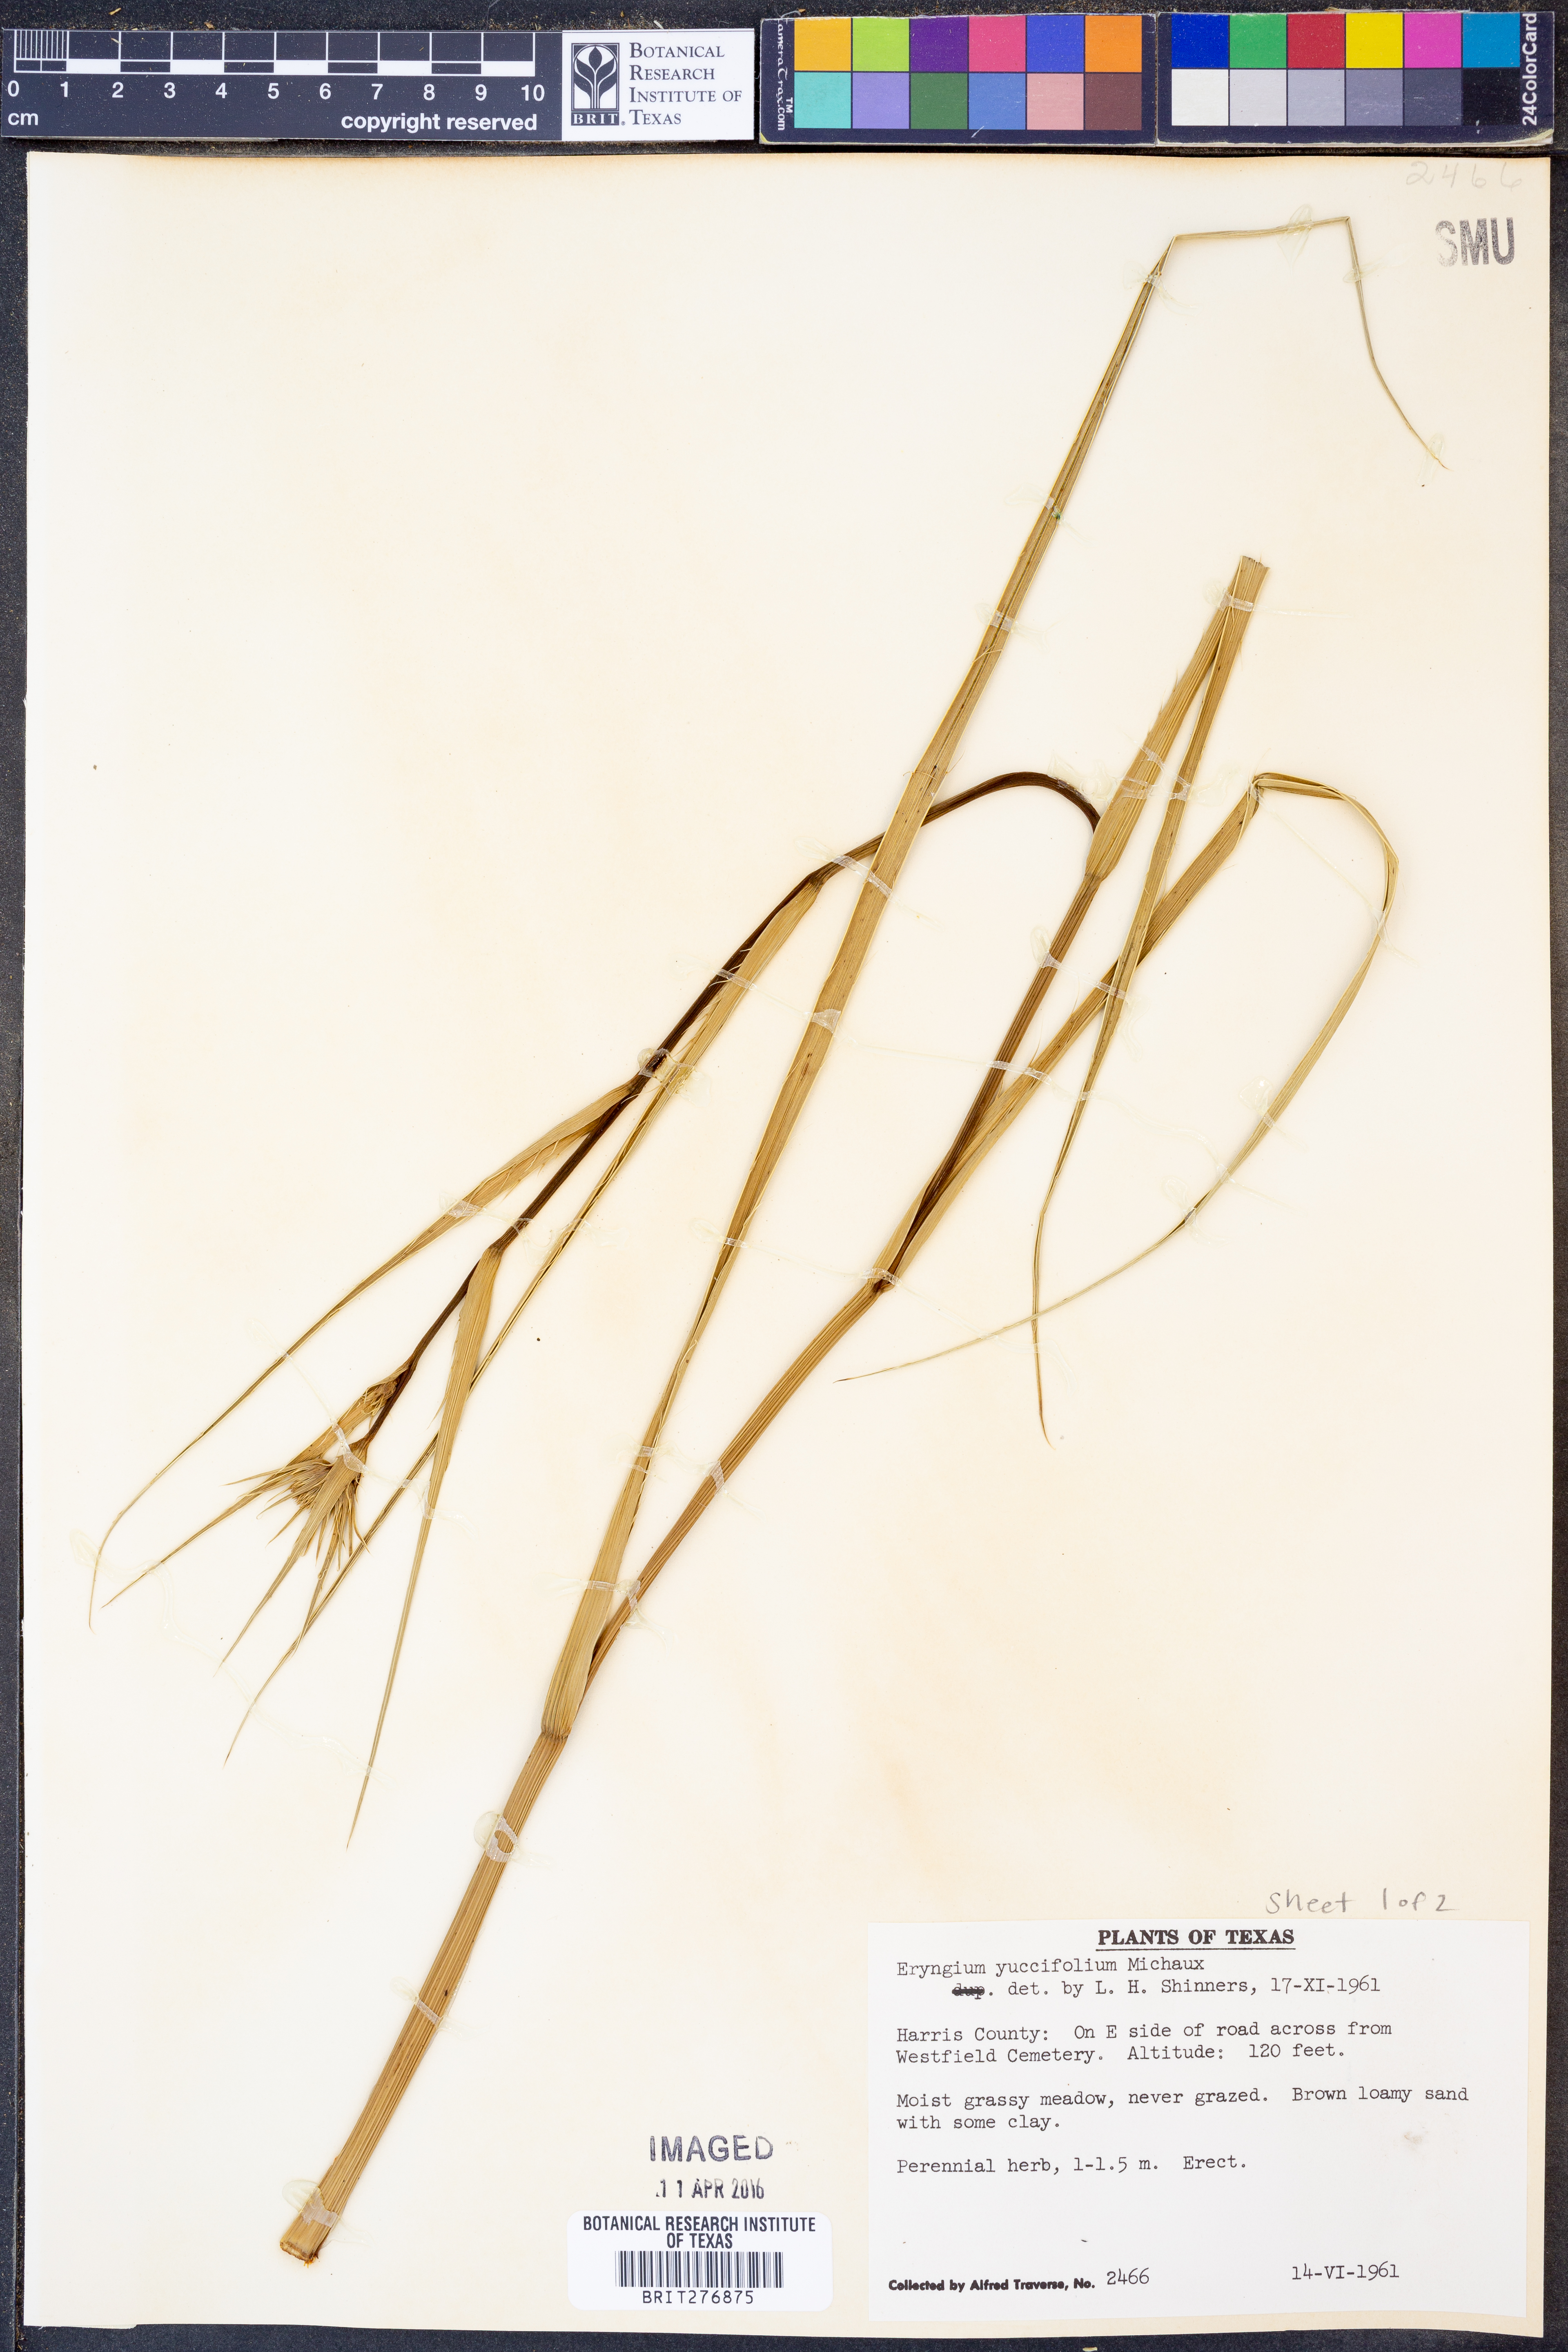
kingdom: Plantae
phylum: Tracheophyta
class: Magnoliopsida
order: Apiales
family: Apiaceae
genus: Eryngium
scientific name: Eryngium yuccifolium
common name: Button eryngo
